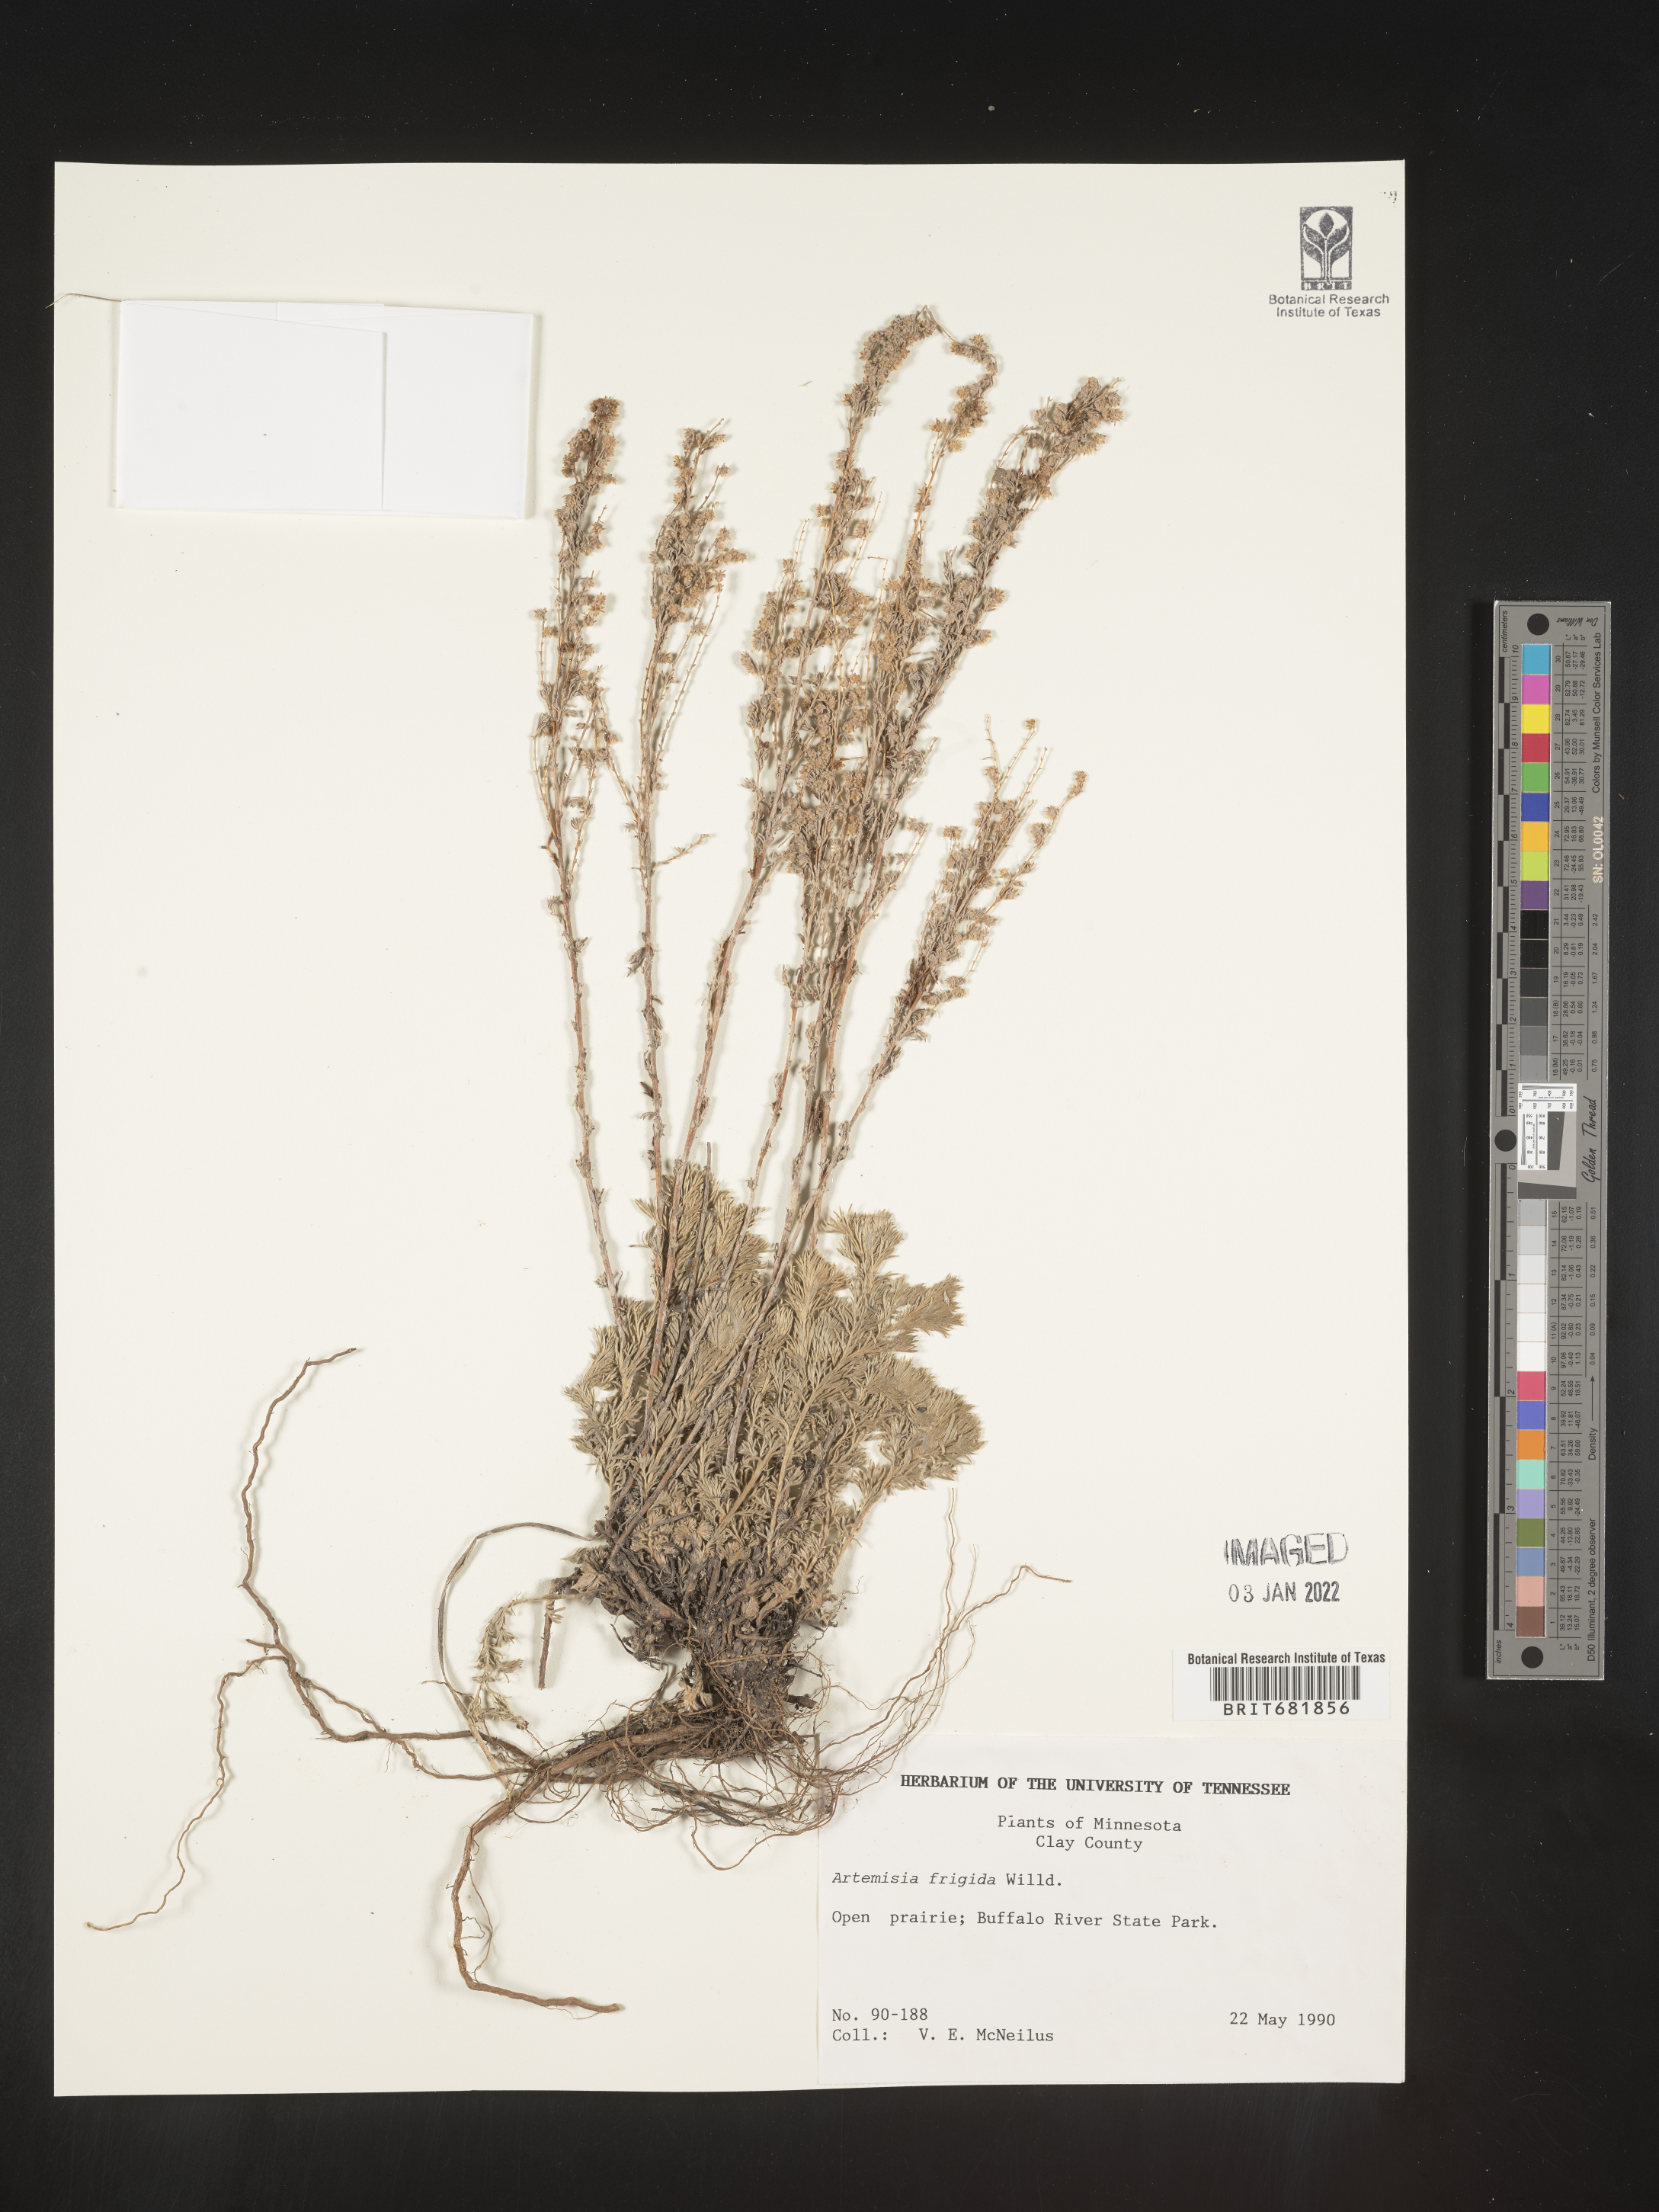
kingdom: Plantae
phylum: Tracheophyta
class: Magnoliopsida
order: Asterales
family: Asteraceae
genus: Artemisia
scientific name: Artemisia frigida
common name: Prairie sagewort
